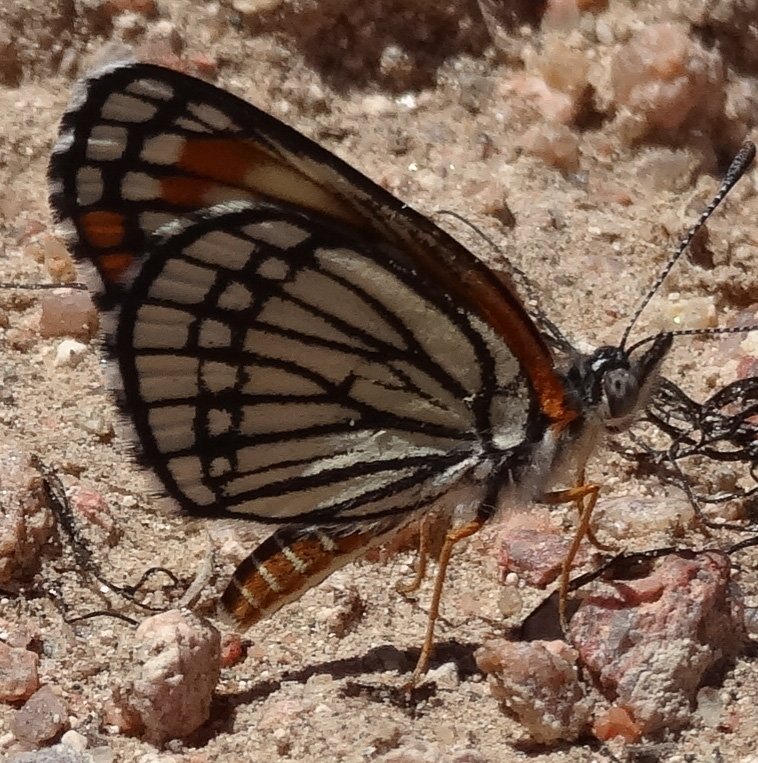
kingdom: Animalia
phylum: Arthropoda
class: Insecta
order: Lepidoptera
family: Nymphalidae
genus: Thessalia
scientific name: Thessalia leanira
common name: Fulvia Checkerspot
